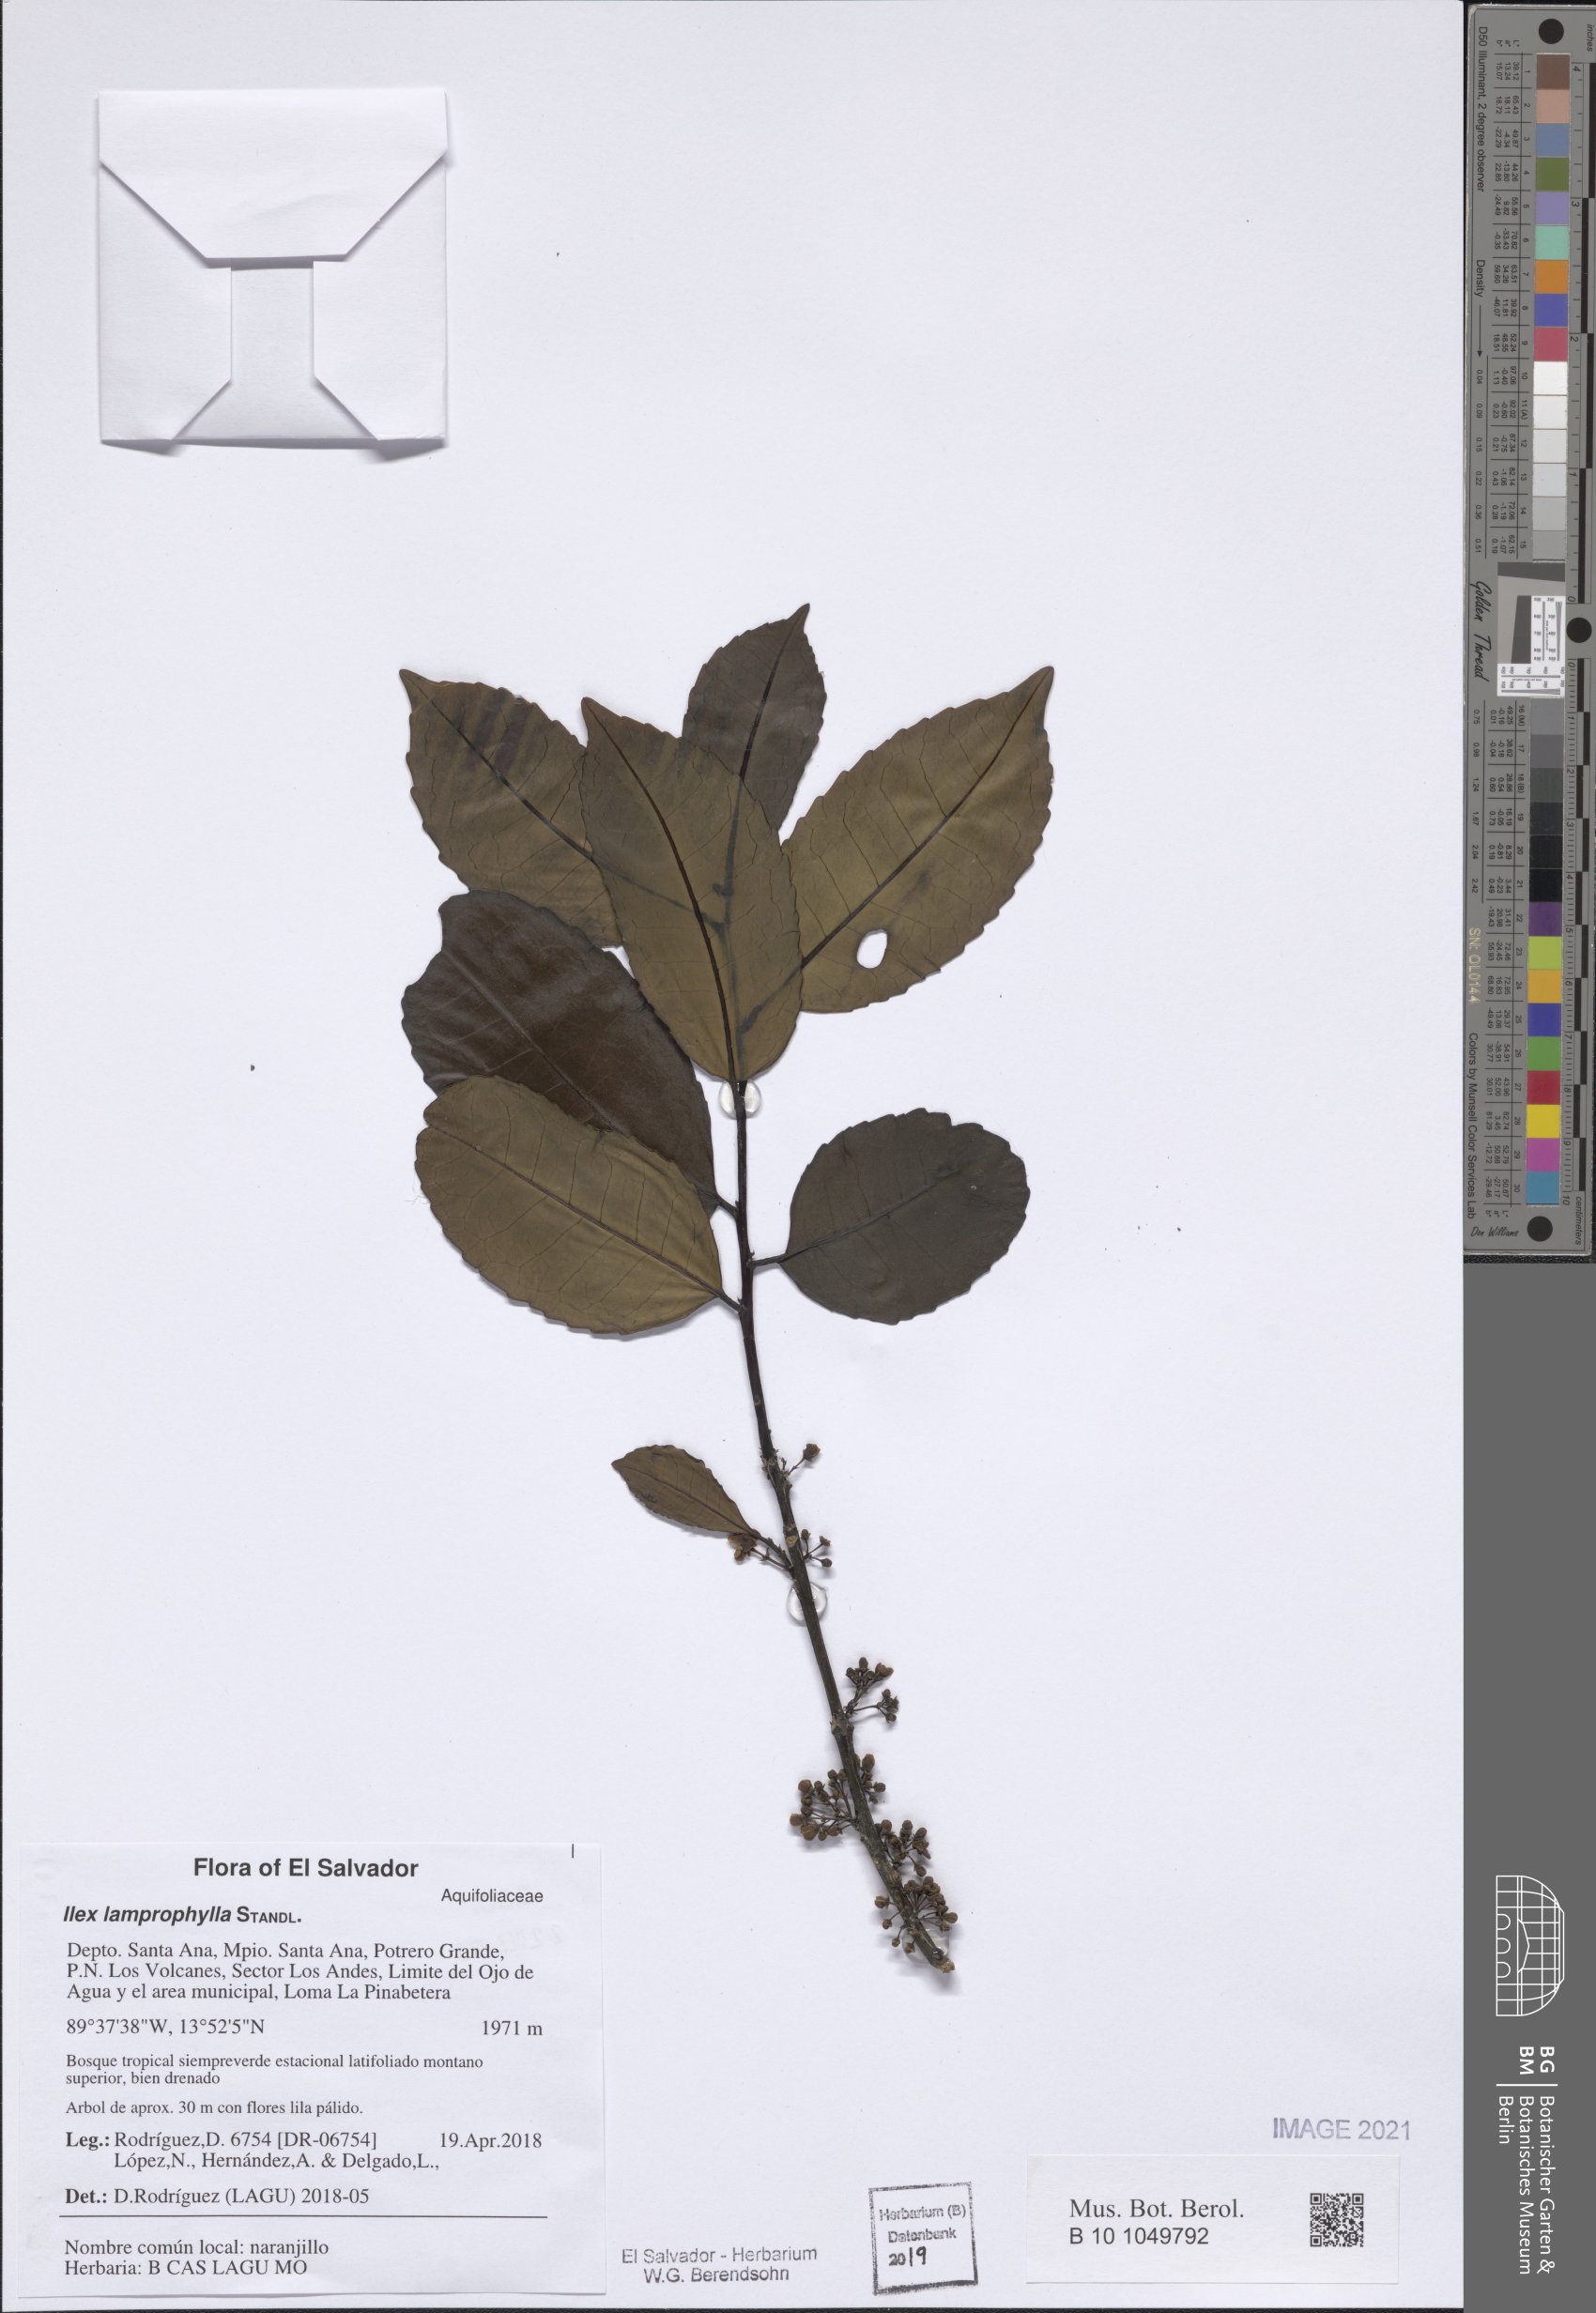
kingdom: Plantae
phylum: Tracheophyta
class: Magnoliopsida
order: Aquifoliales
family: Aquifoliaceae
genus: Ilex
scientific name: Ilex lamprophylla
